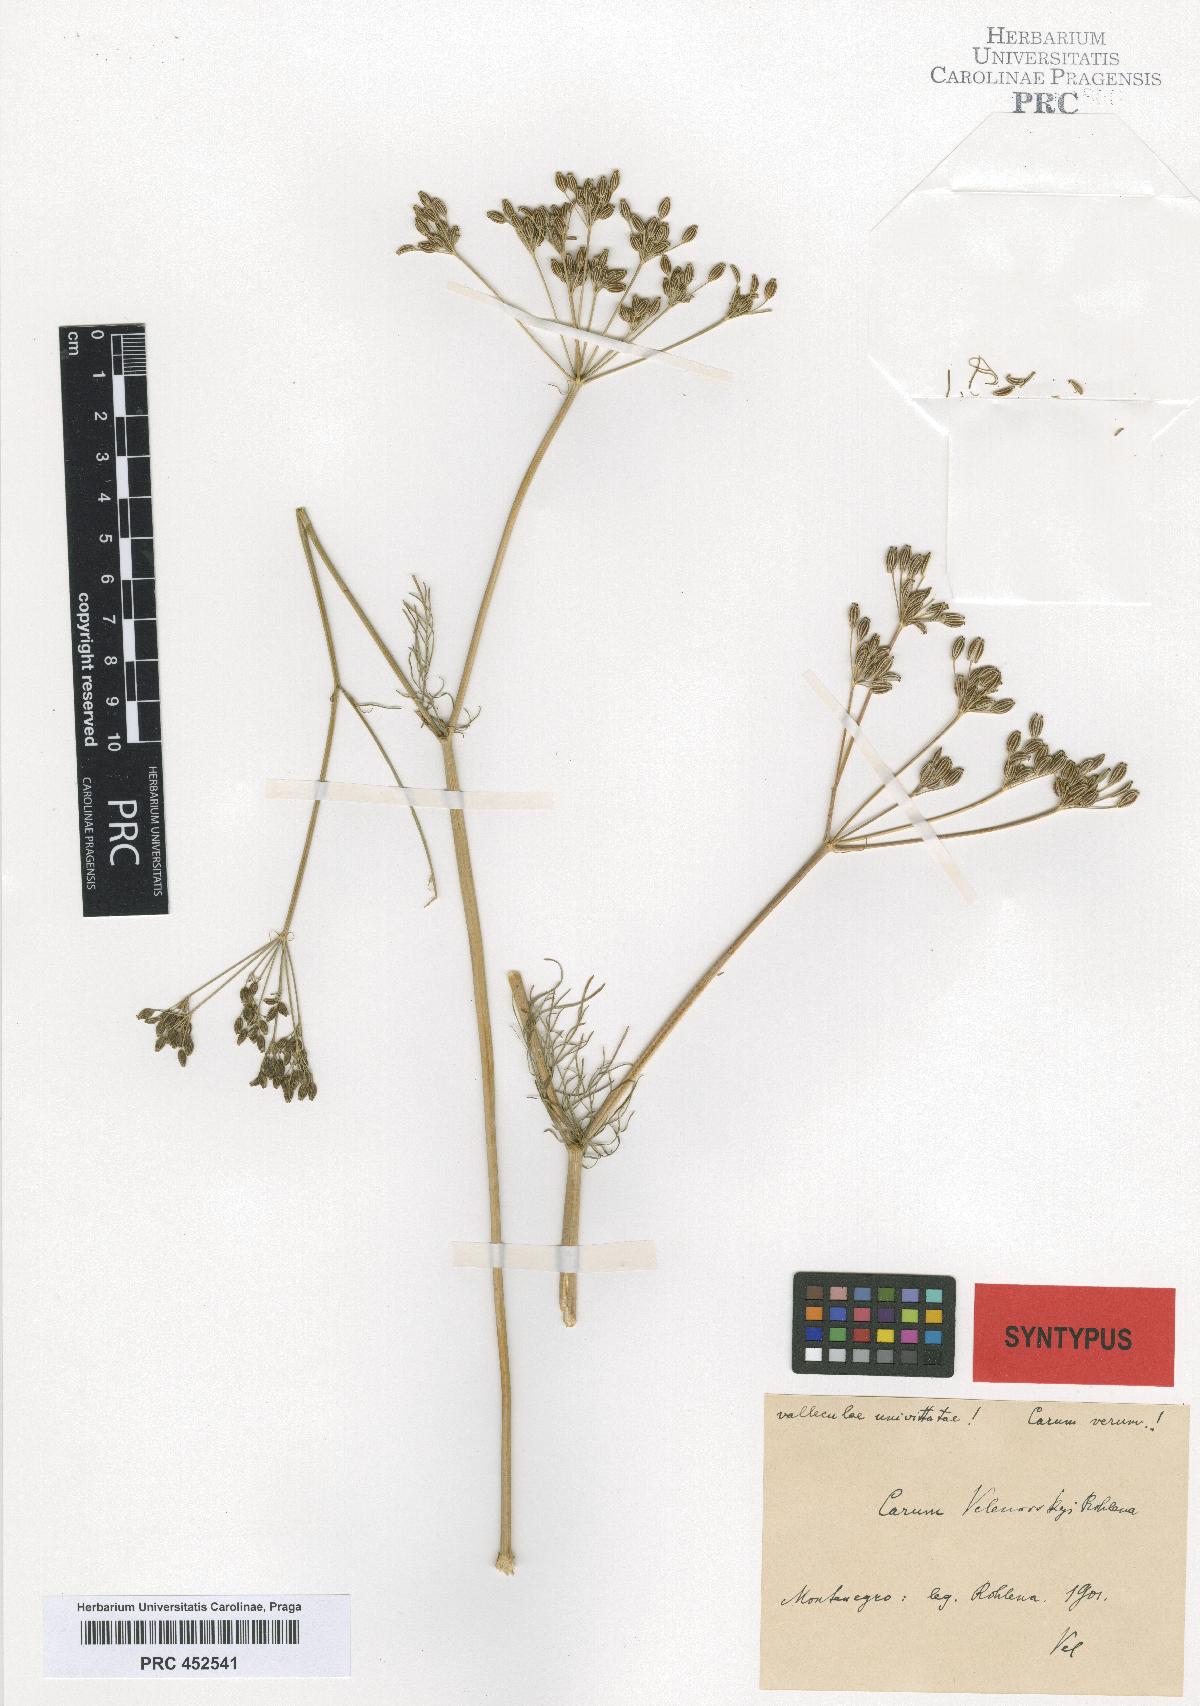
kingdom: Plantae
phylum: Tracheophyta
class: Magnoliopsida
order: Apiales
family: Apiaceae
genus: Carum
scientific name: Carum carvi
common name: Caraway
